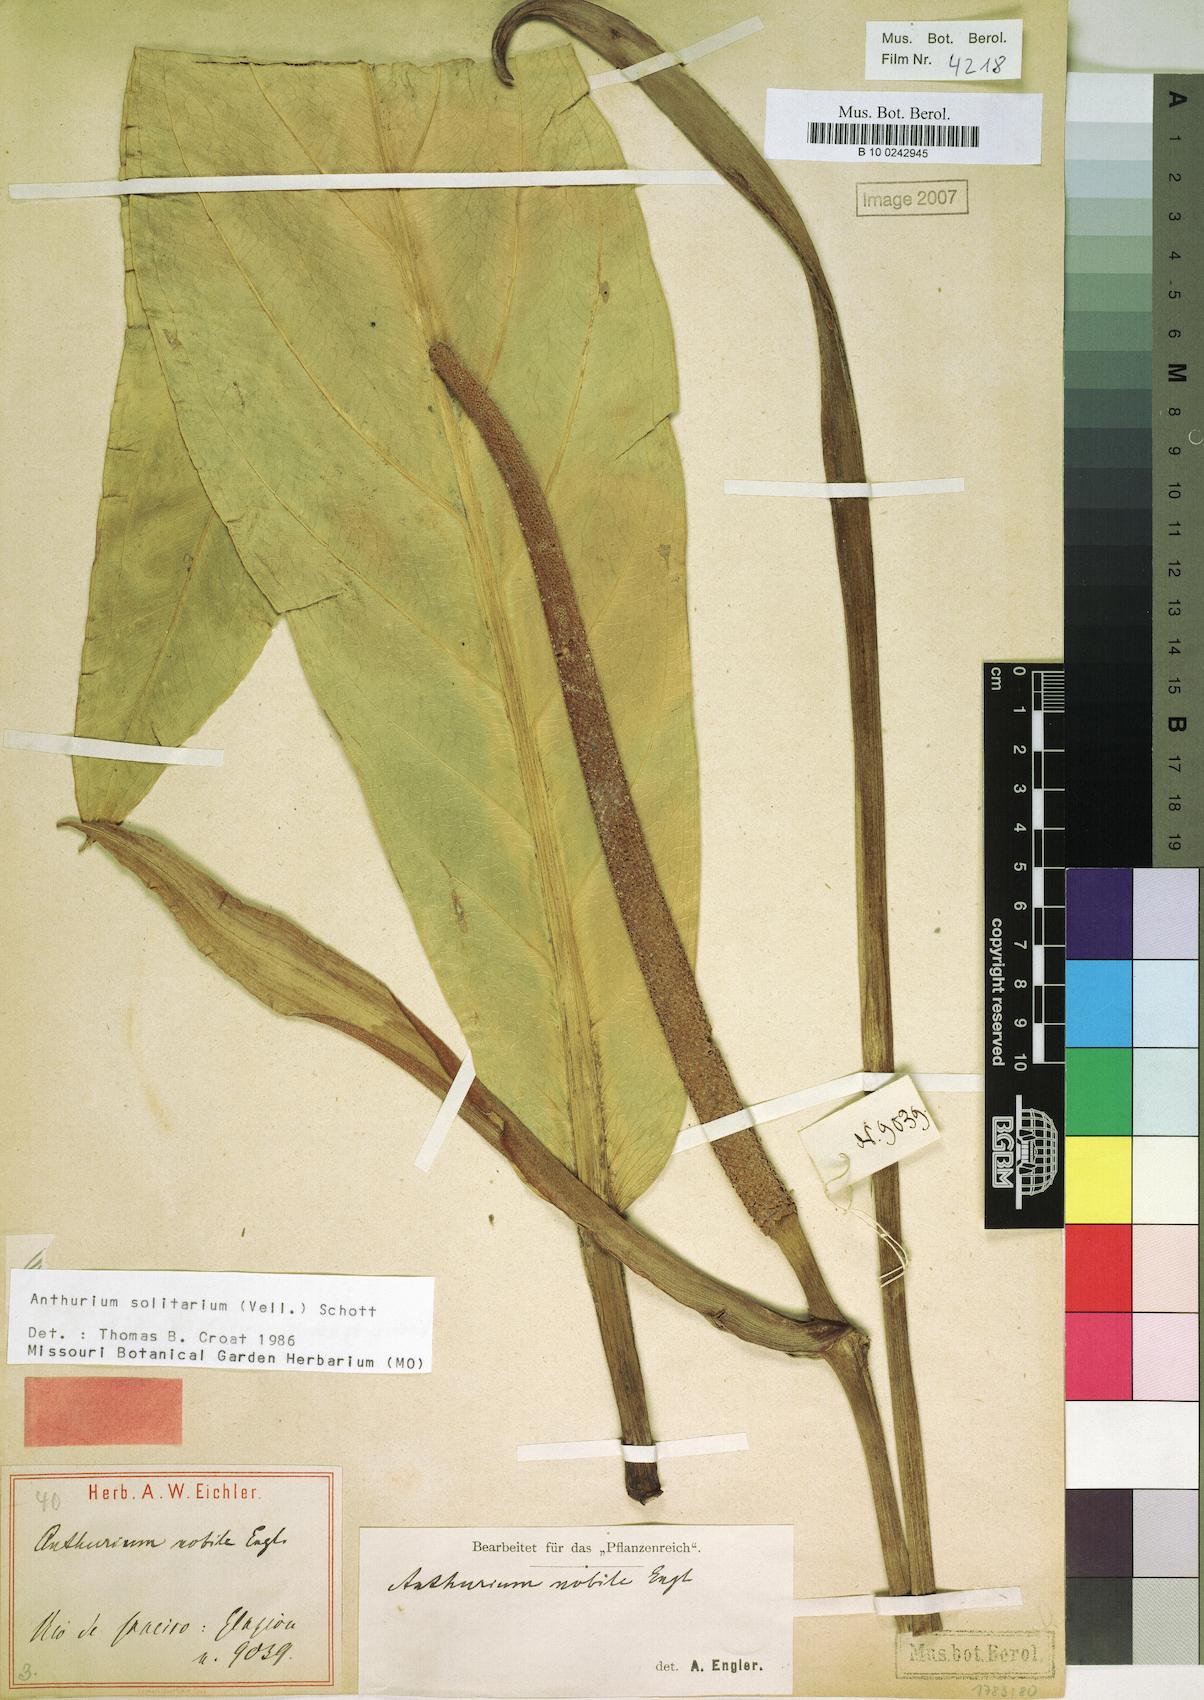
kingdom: Plantae
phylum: Tracheophyta
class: Liliopsida
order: Alismatales
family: Araceae
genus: Anthurium
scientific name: Anthurium solitarium
